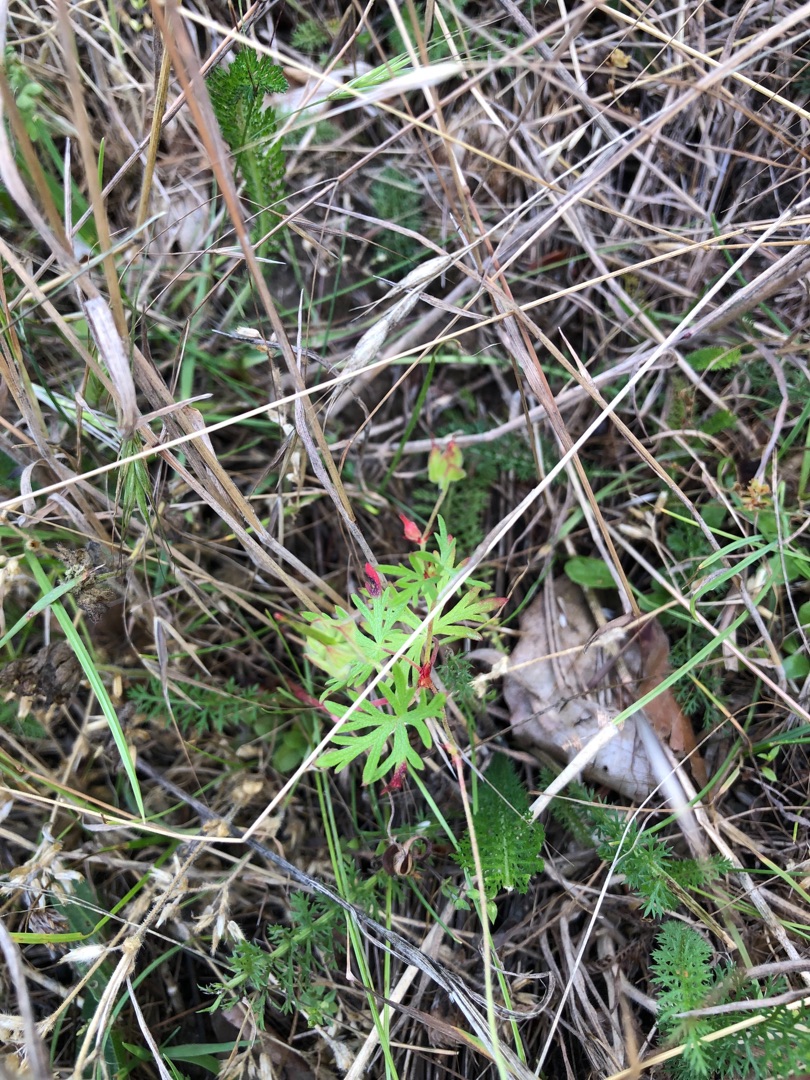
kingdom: Plantae
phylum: Tracheophyta
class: Magnoliopsida
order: Geraniales
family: Geraniaceae
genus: Geranium
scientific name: Geranium columbinum
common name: Storbægret storkenæb
